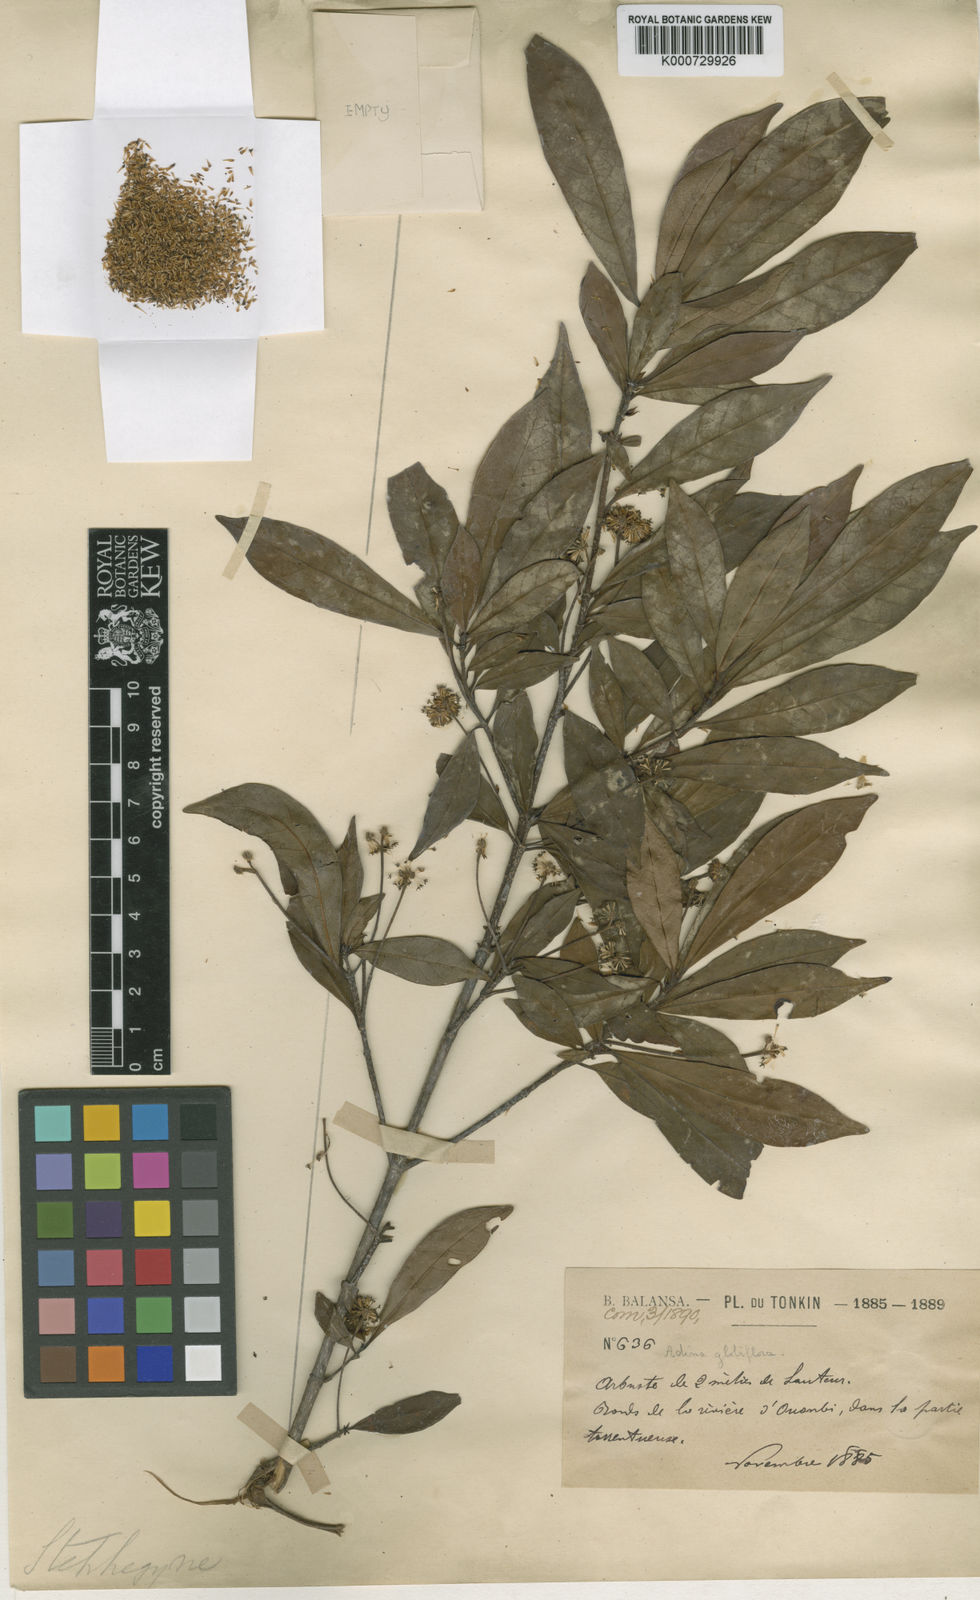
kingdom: Plantae
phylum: Tracheophyta
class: Magnoliopsida
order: Gentianales
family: Rubiaceae
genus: Adina
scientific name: Adina pilulifera
